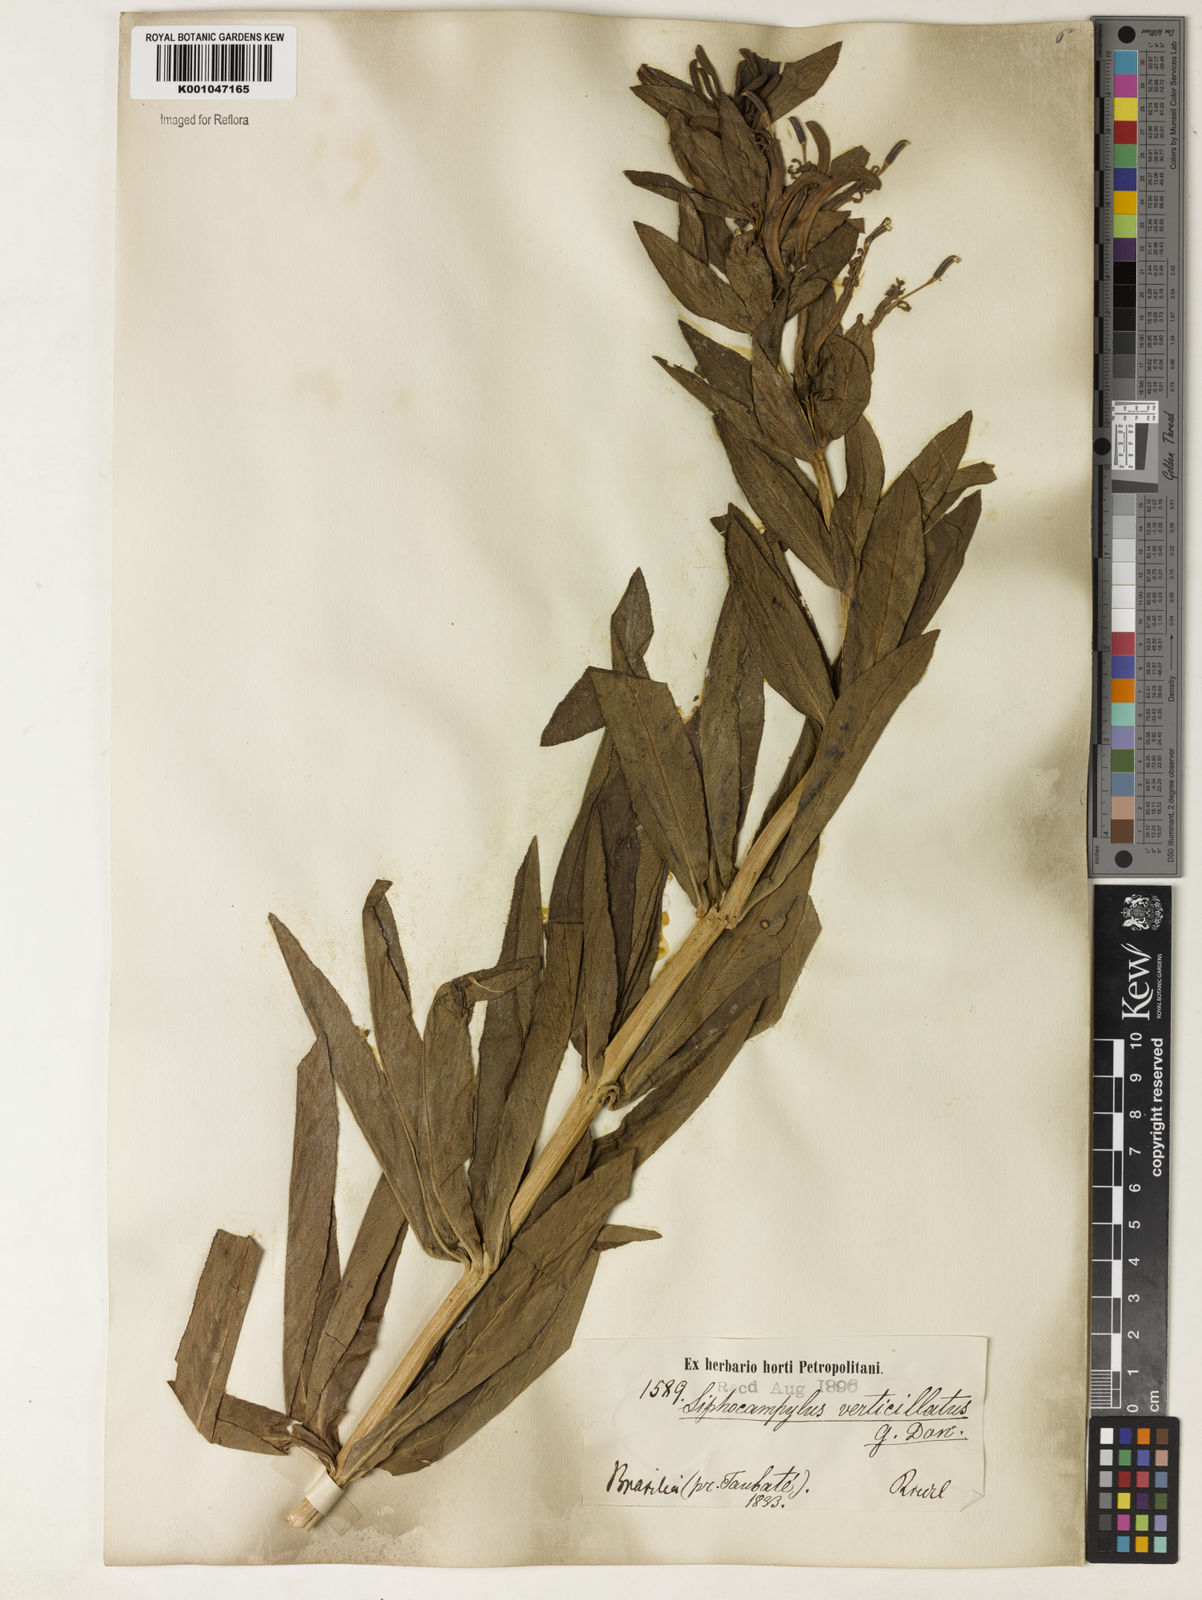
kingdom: Plantae
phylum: Tracheophyta
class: Magnoliopsida
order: Asterales
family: Campanulaceae
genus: Siphocampylus
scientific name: Siphocampylus verticillatus
